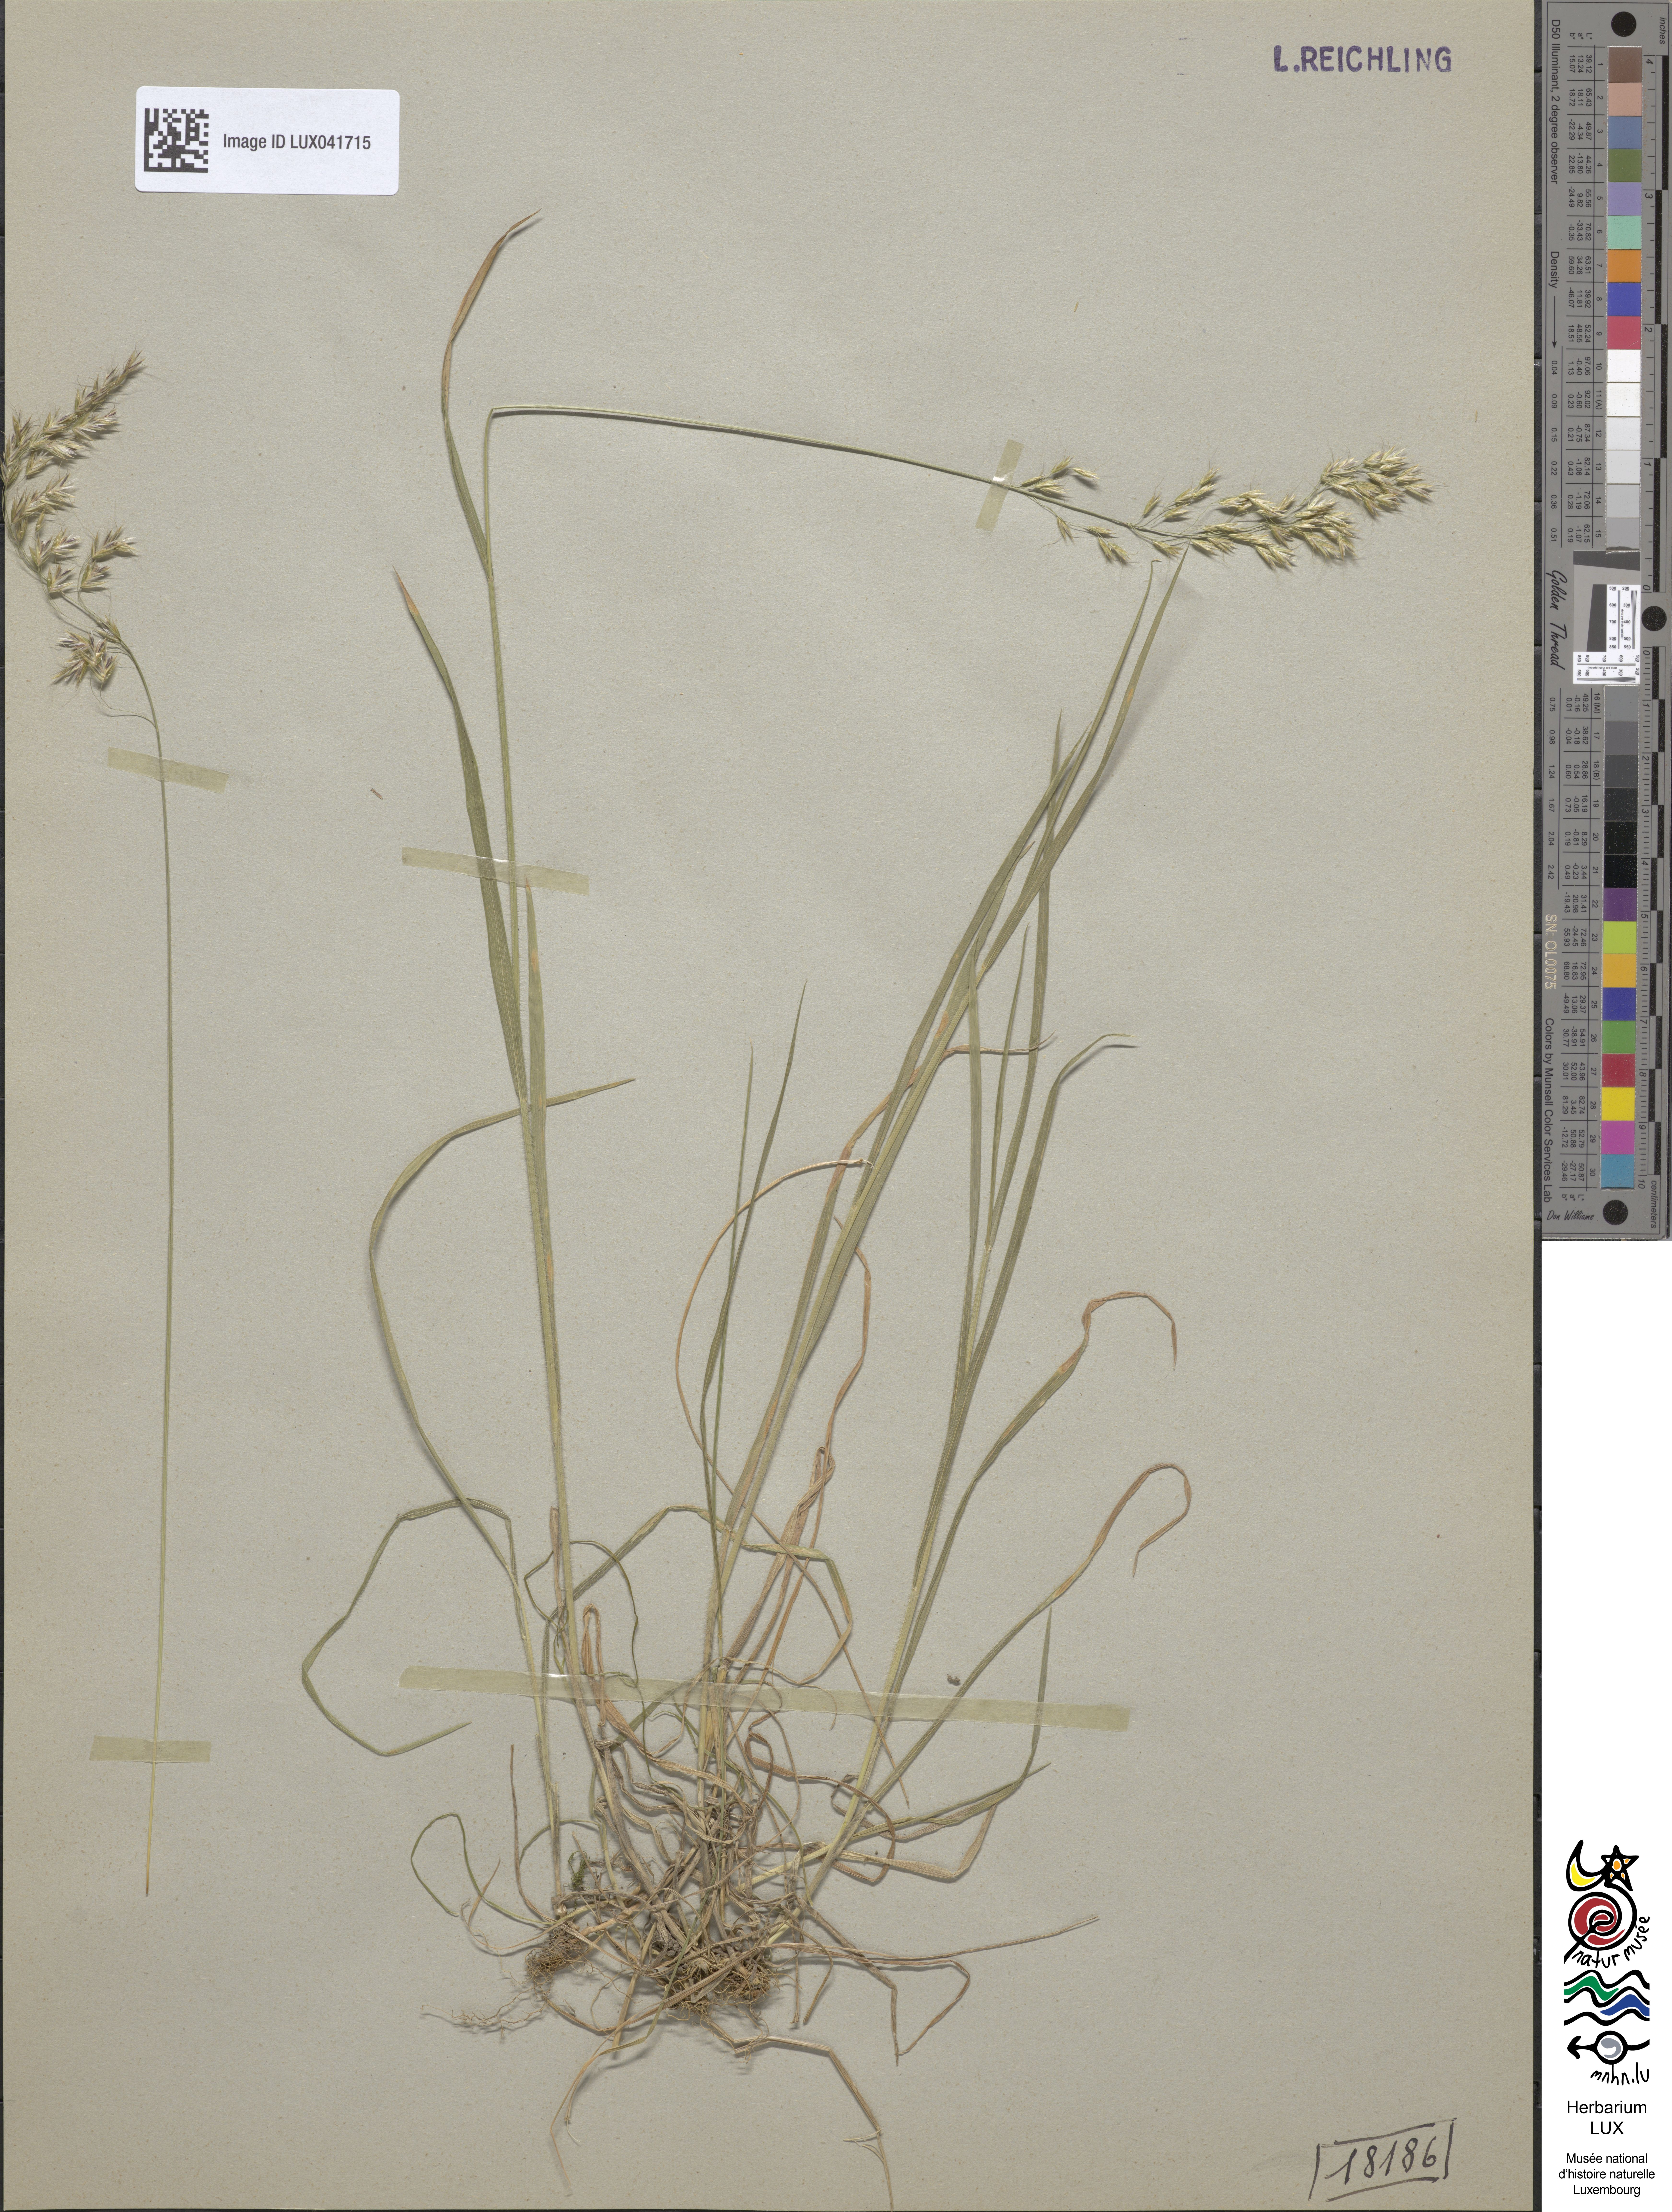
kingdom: Plantae
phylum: Tracheophyta
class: Liliopsida
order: Poales
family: Poaceae
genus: Trisetum
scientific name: Trisetum flavescens
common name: Yellow oat-grass
